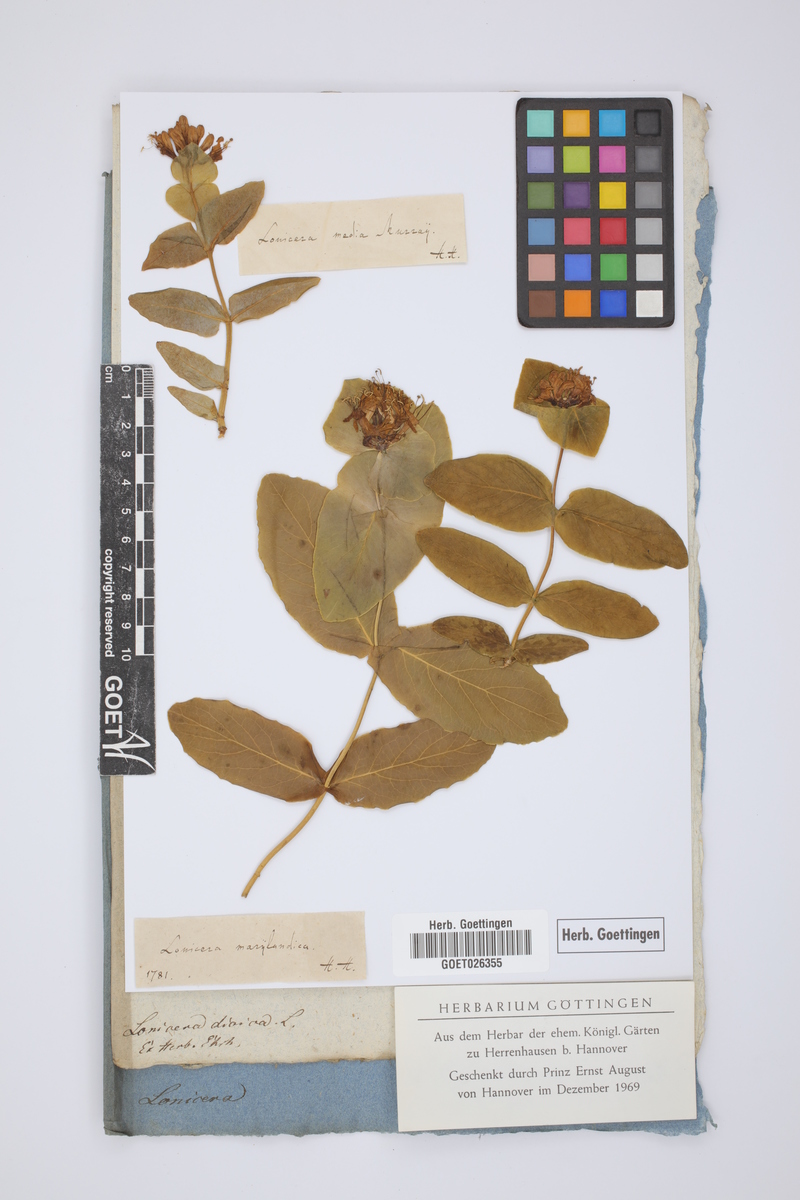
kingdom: Plantae
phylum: Tracheophyta
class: Magnoliopsida
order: Dipsacales
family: Caprifoliaceae
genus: Lonicera
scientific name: Lonicera dioica
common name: Limber honeysuckle
